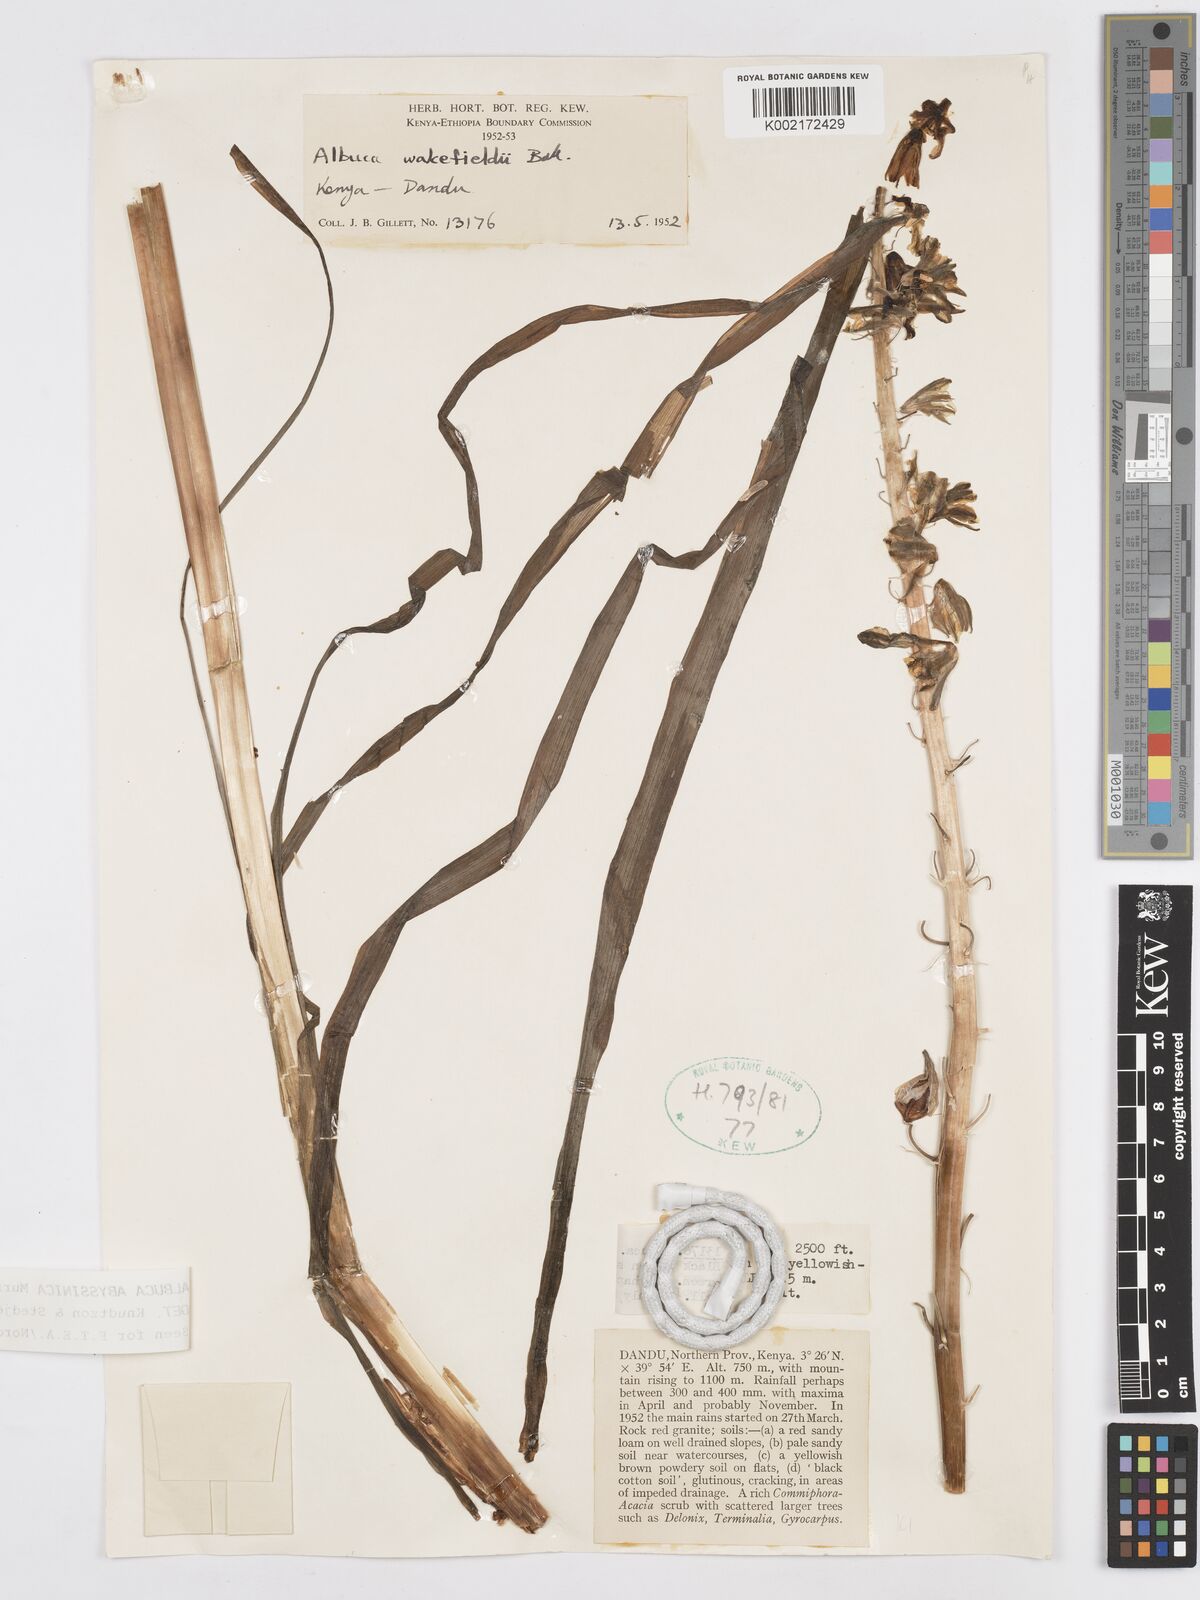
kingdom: Plantae
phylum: Tracheophyta
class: Liliopsida
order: Asparagales
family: Asparagaceae
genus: Albuca
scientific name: Albuca abyssinica
